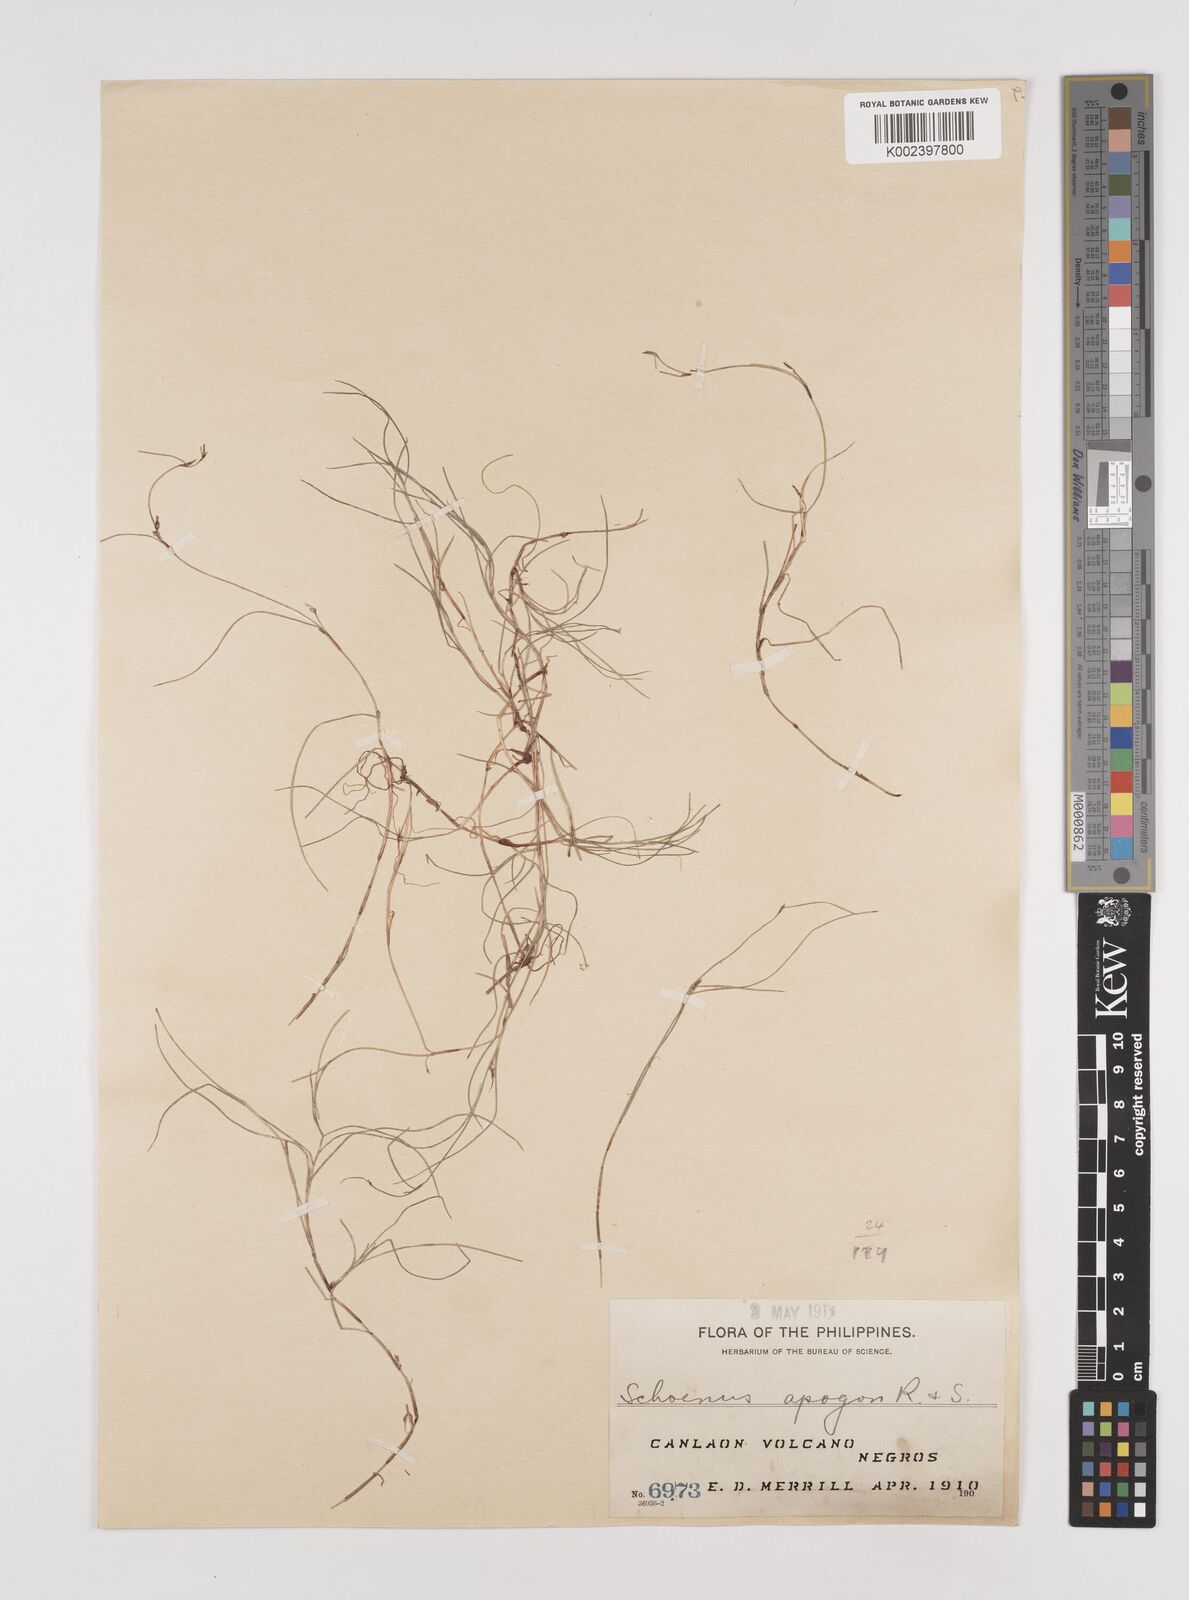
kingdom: Plantae
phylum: Tracheophyta
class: Liliopsida
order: Poales
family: Cyperaceae
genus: Schoenus
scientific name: Schoenus maschalinus
